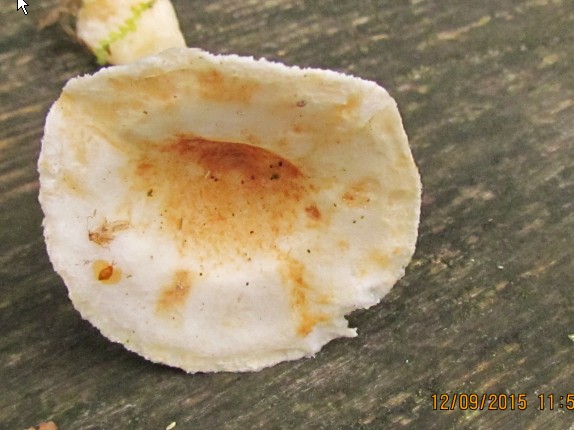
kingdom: Fungi
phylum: Basidiomycota
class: Agaricomycetes
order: Russulales
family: Russulaceae
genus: Lactarius
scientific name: Lactarius scoticus
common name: tørve-mælkehat
